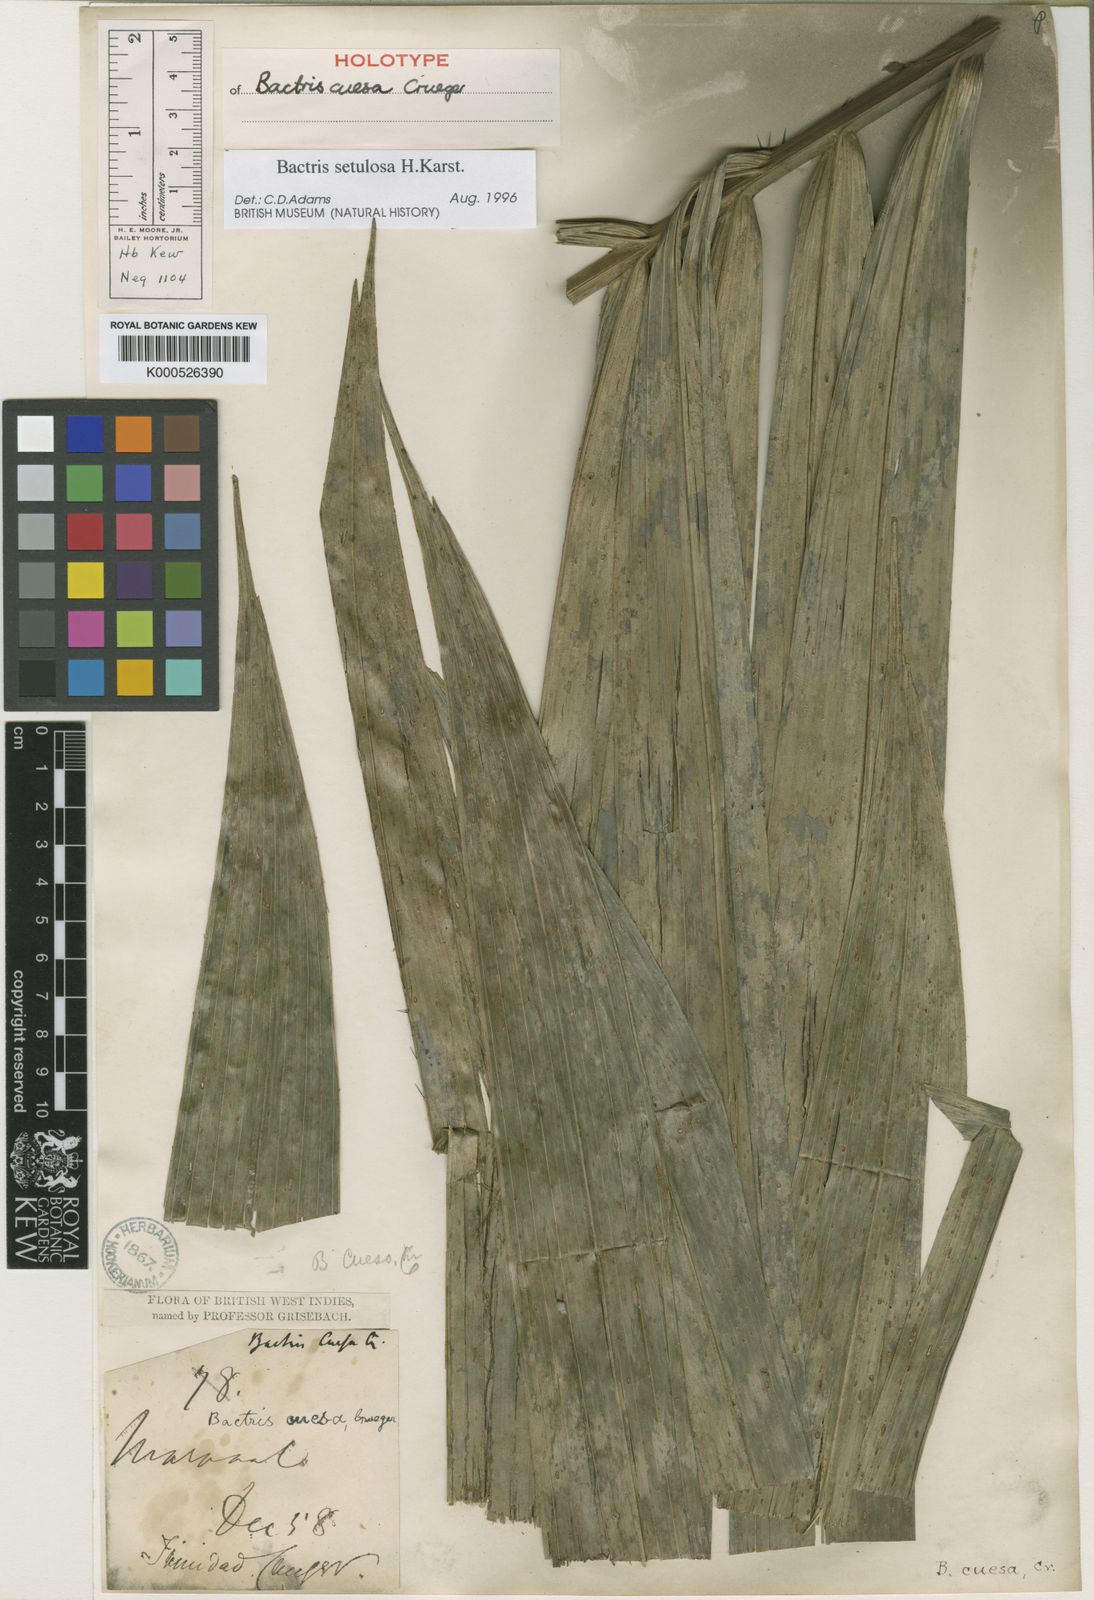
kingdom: Plantae
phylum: Tracheophyta
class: Liliopsida
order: Arecales
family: Arecaceae
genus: Bactris
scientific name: Bactris setulosa
